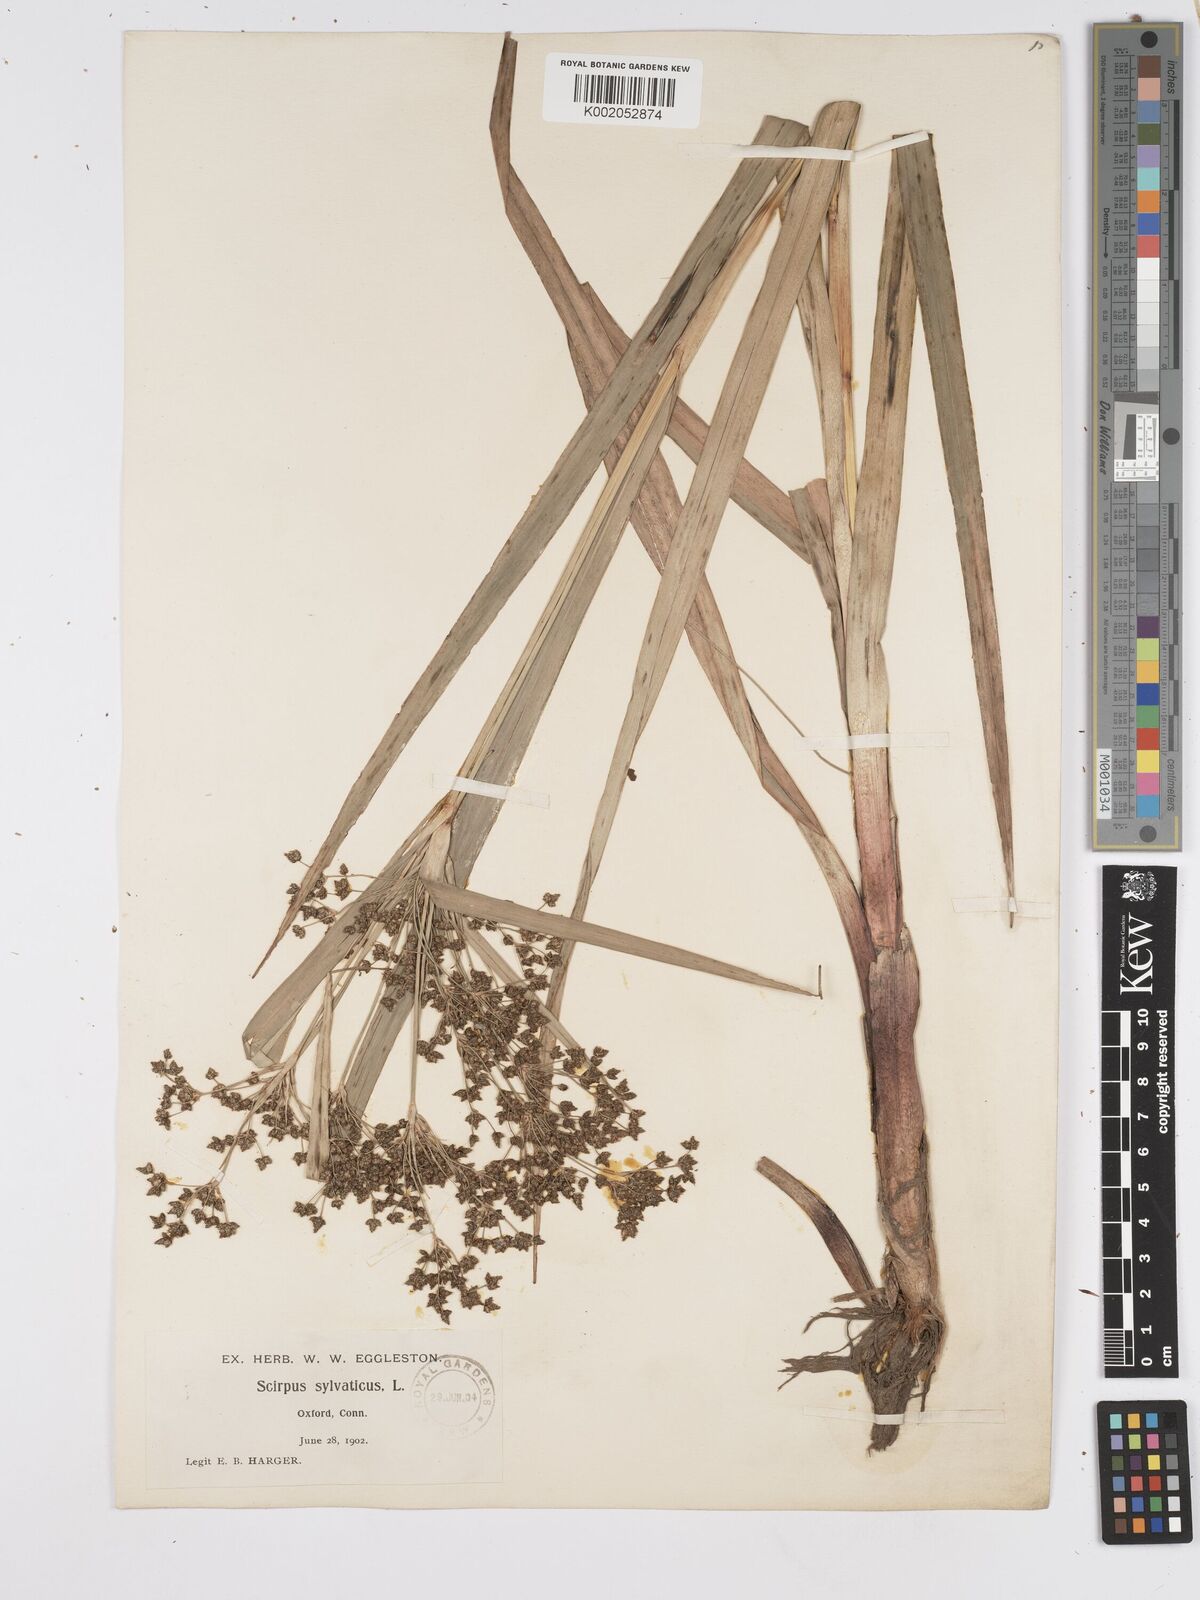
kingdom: Plantae
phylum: Tracheophyta
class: Liliopsida
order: Poales
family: Cyperaceae
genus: Scirpus
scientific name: Scirpus sylvaticus
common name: Wood club-rush
